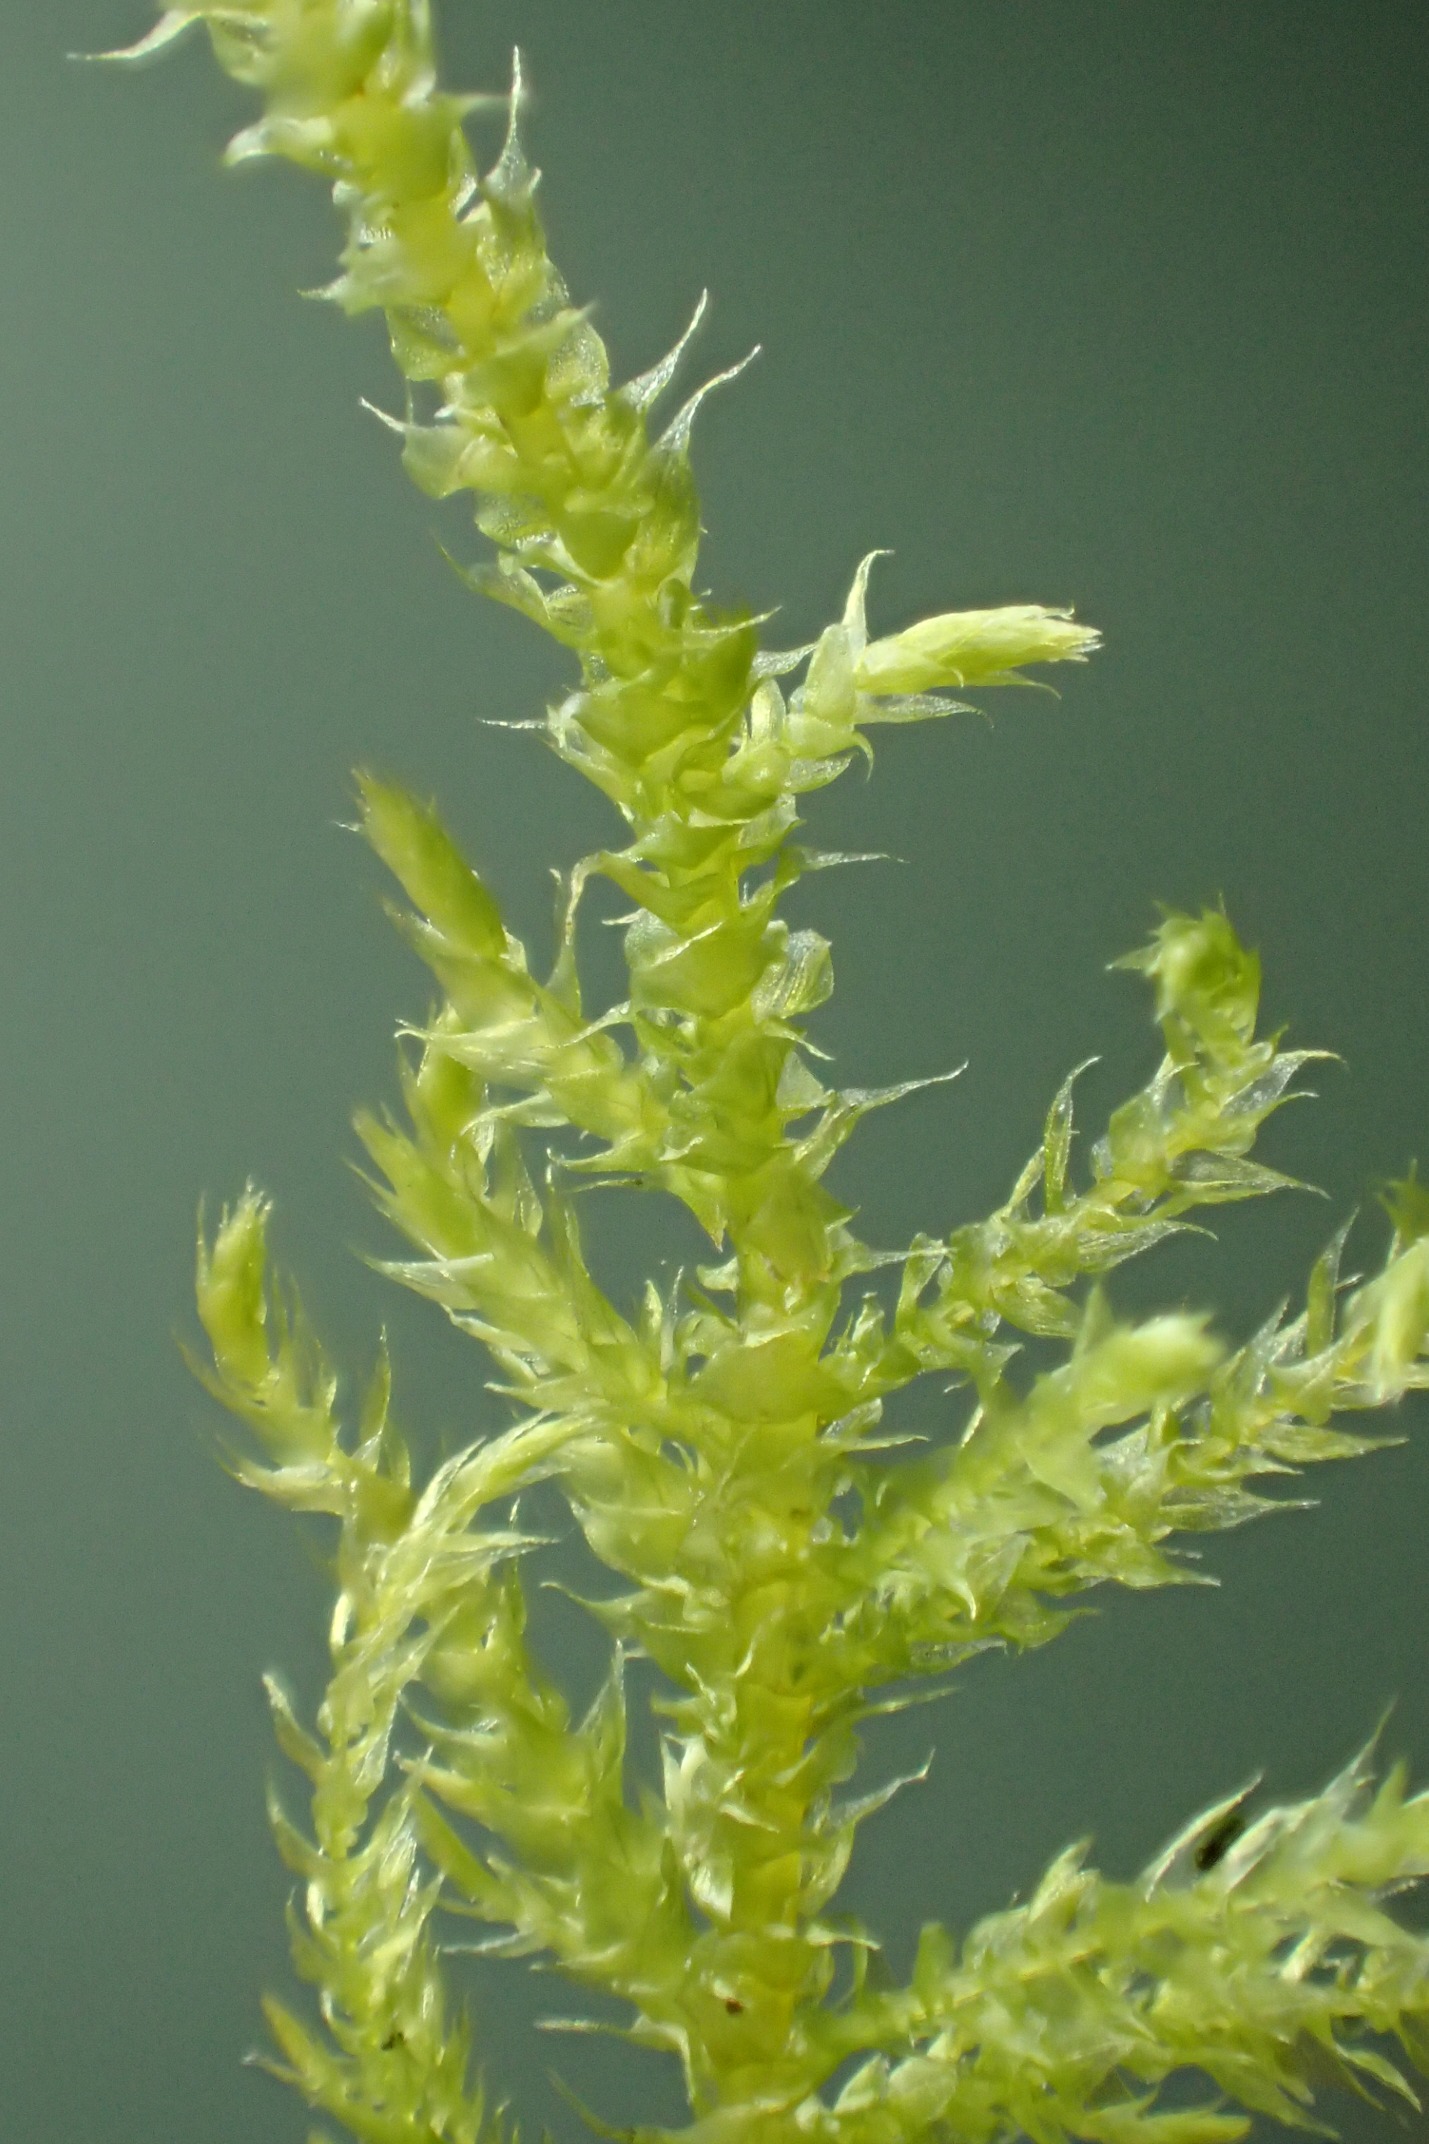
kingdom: Plantae
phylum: Bryophyta
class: Bryopsida
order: Hypnales
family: Brachytheciaceae
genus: Kindbergia
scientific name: Kindbergia praelonga
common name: Forskelligbladet vortetand
